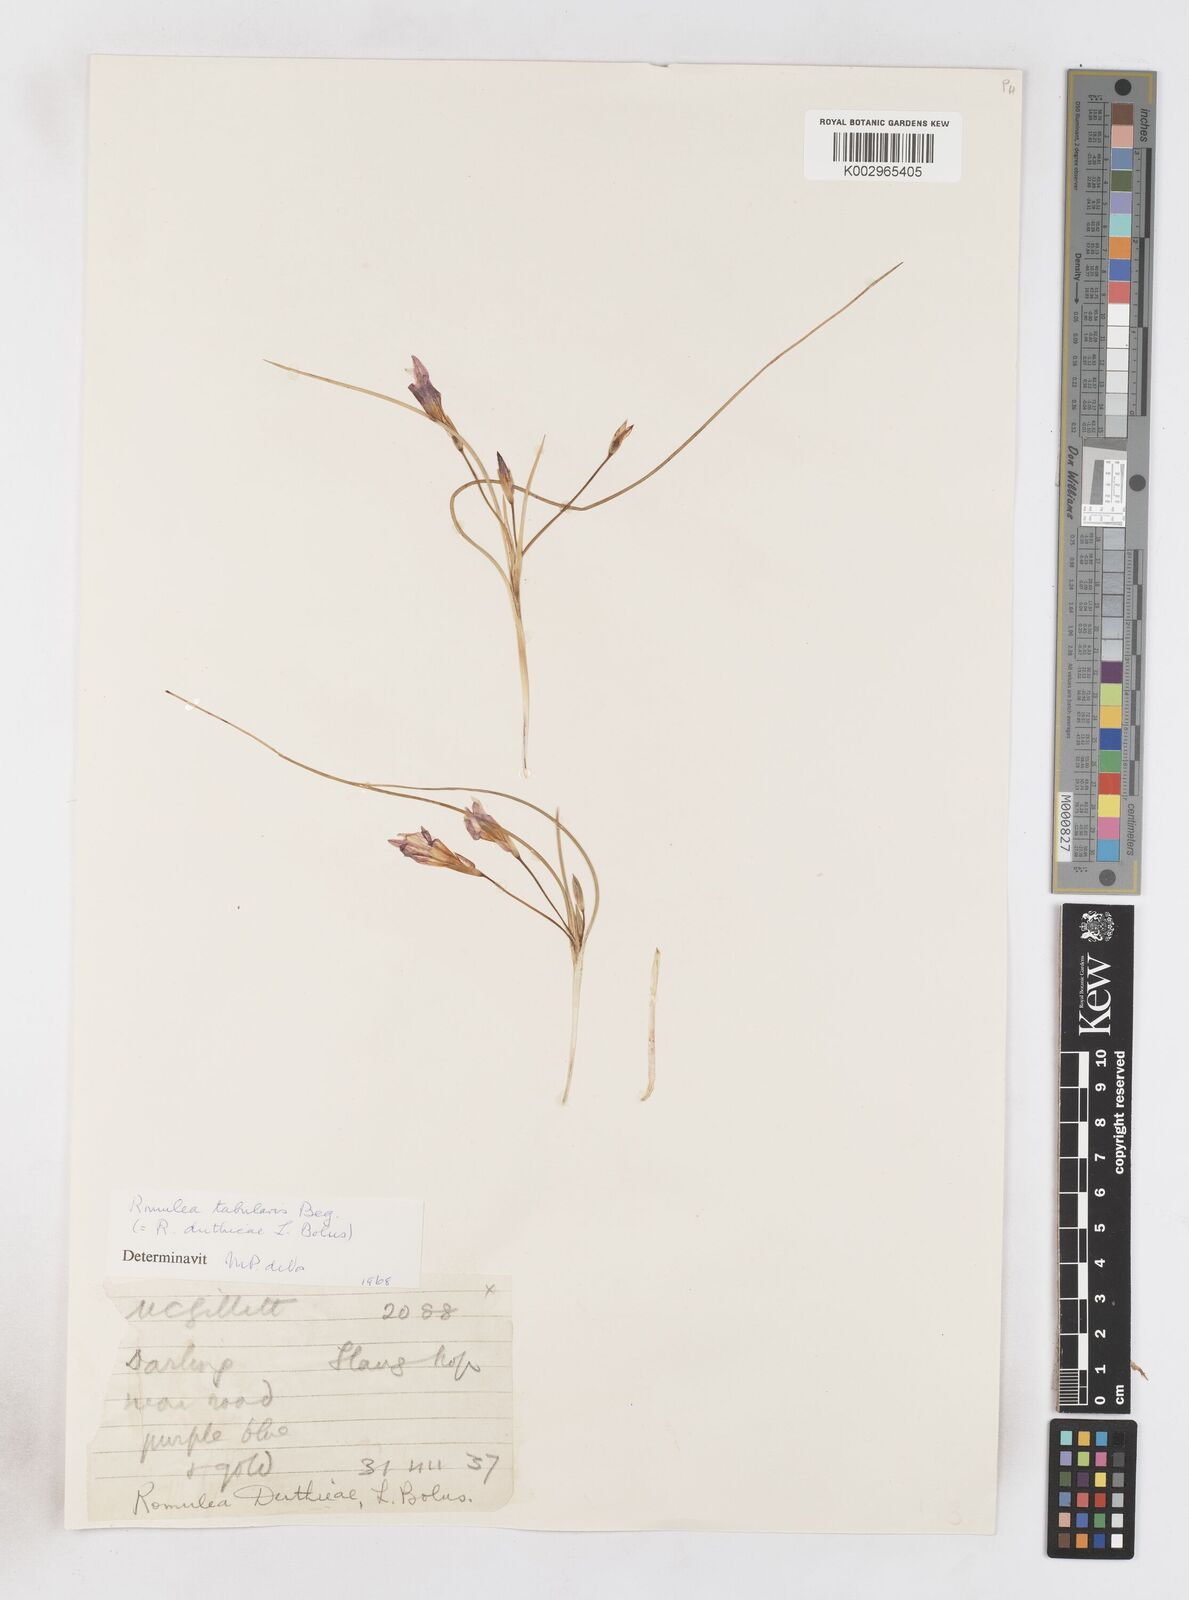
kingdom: Plantae
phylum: Tracheophyta
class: Liliopsida
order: Asparagales
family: Iridaceae
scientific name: Iridaceae
